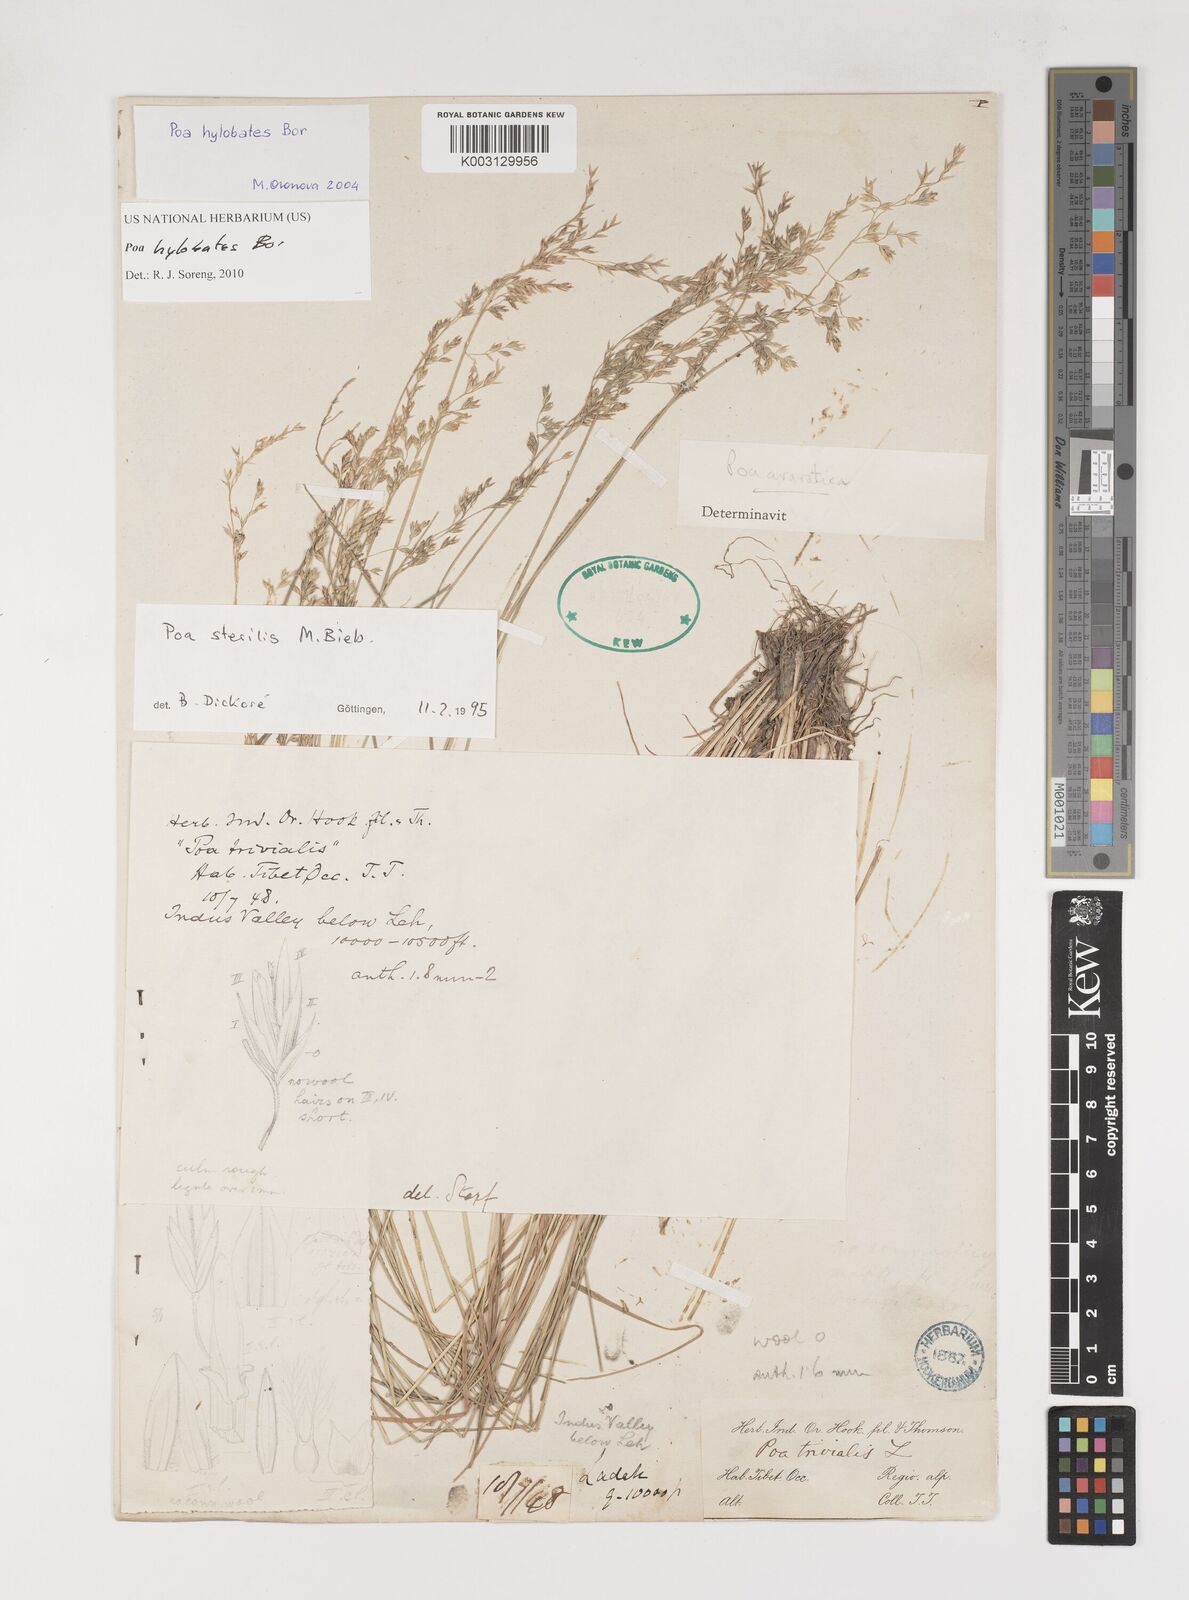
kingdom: Plantae
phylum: Tracheophyta
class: Liliopsida
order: Poales
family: Poaceae
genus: Poa
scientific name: Poa hylobates
